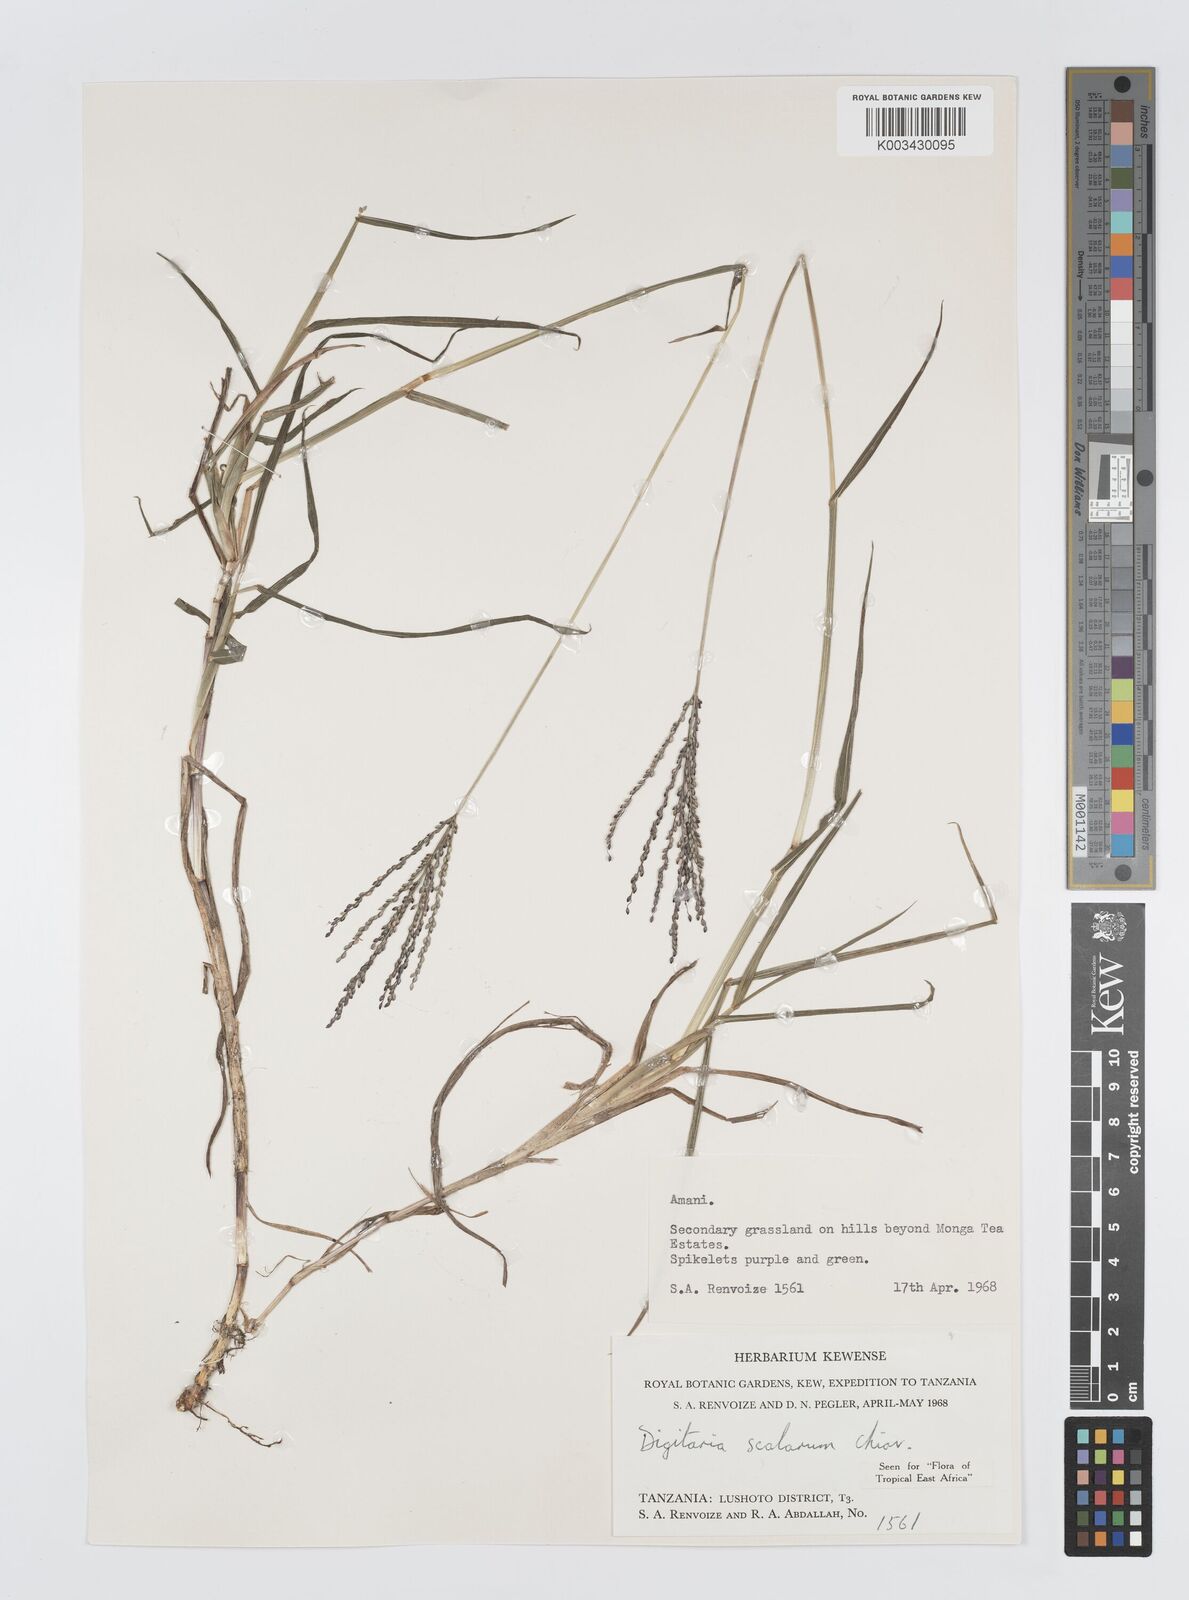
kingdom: Plantae
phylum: Tracheophyta
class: Liliopsida
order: Poales
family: Poaceae
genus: Digitaria
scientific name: Digitaria abyssinica
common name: African couchgrass
